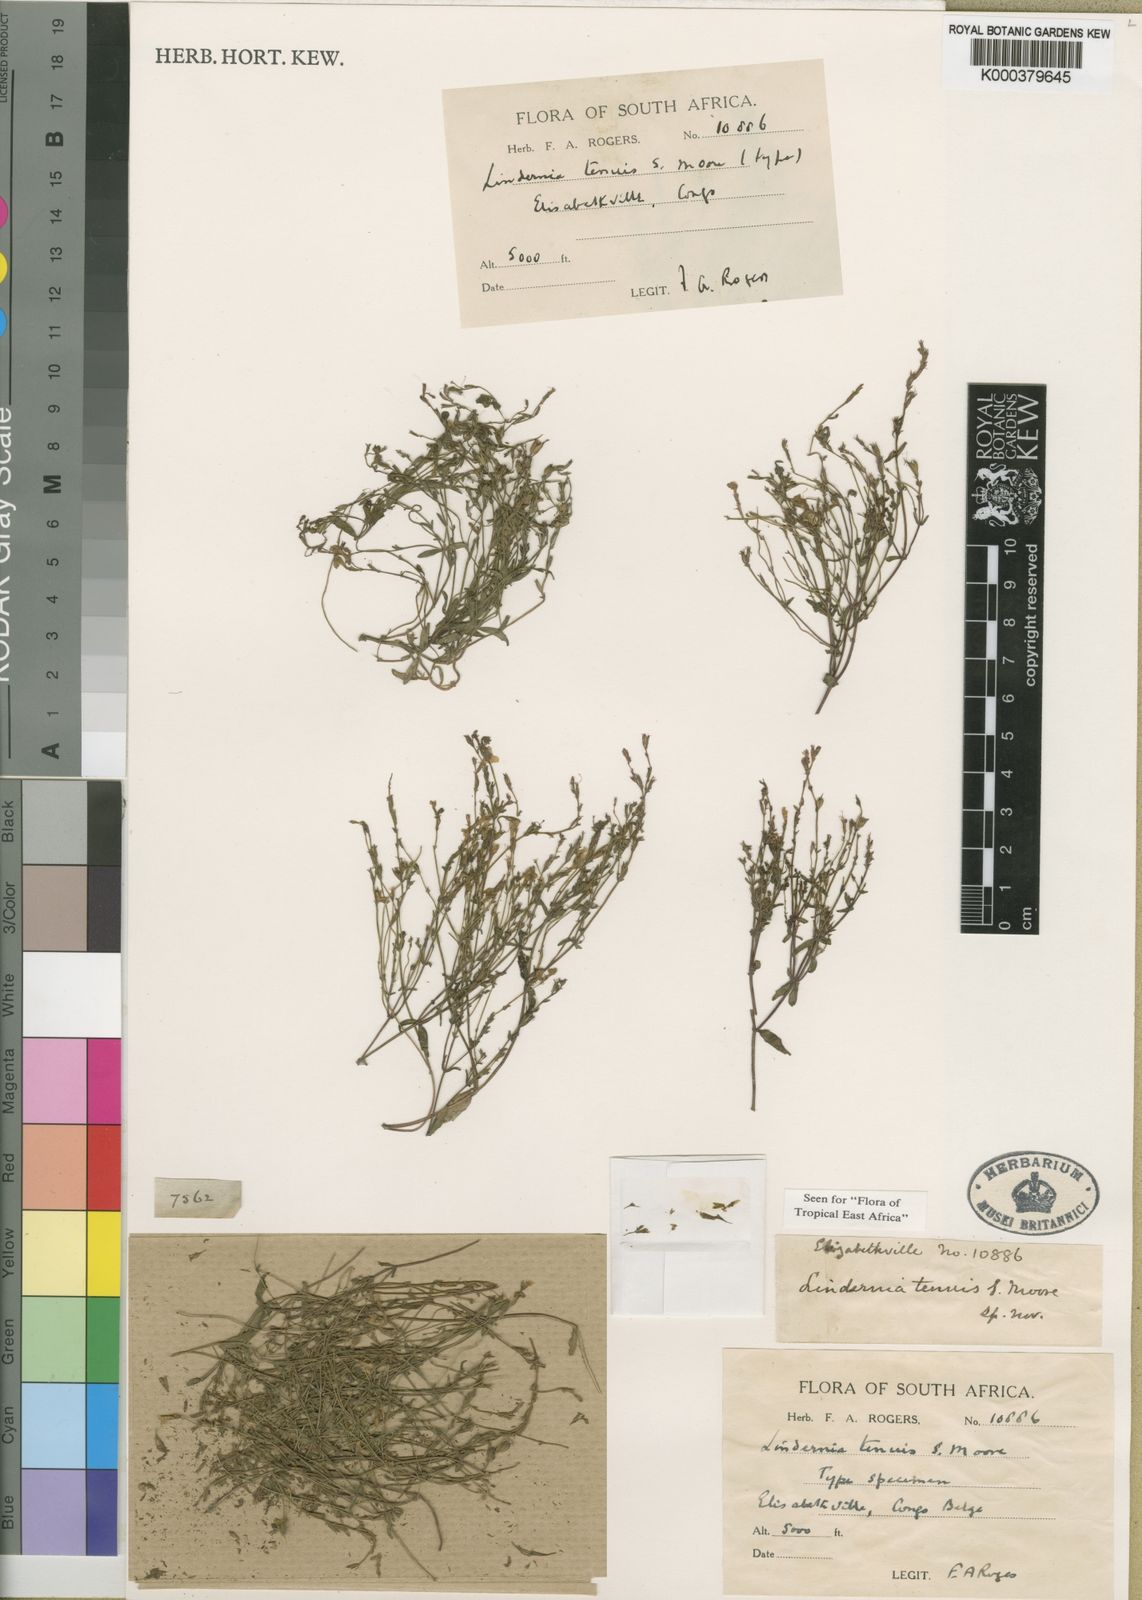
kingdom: Plantae
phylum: Tracheophyta
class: Magnoliopsida
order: Lamiales
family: Linderniaceae
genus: Crepidorhopalon
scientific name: Crepidorhopalon tenuis
